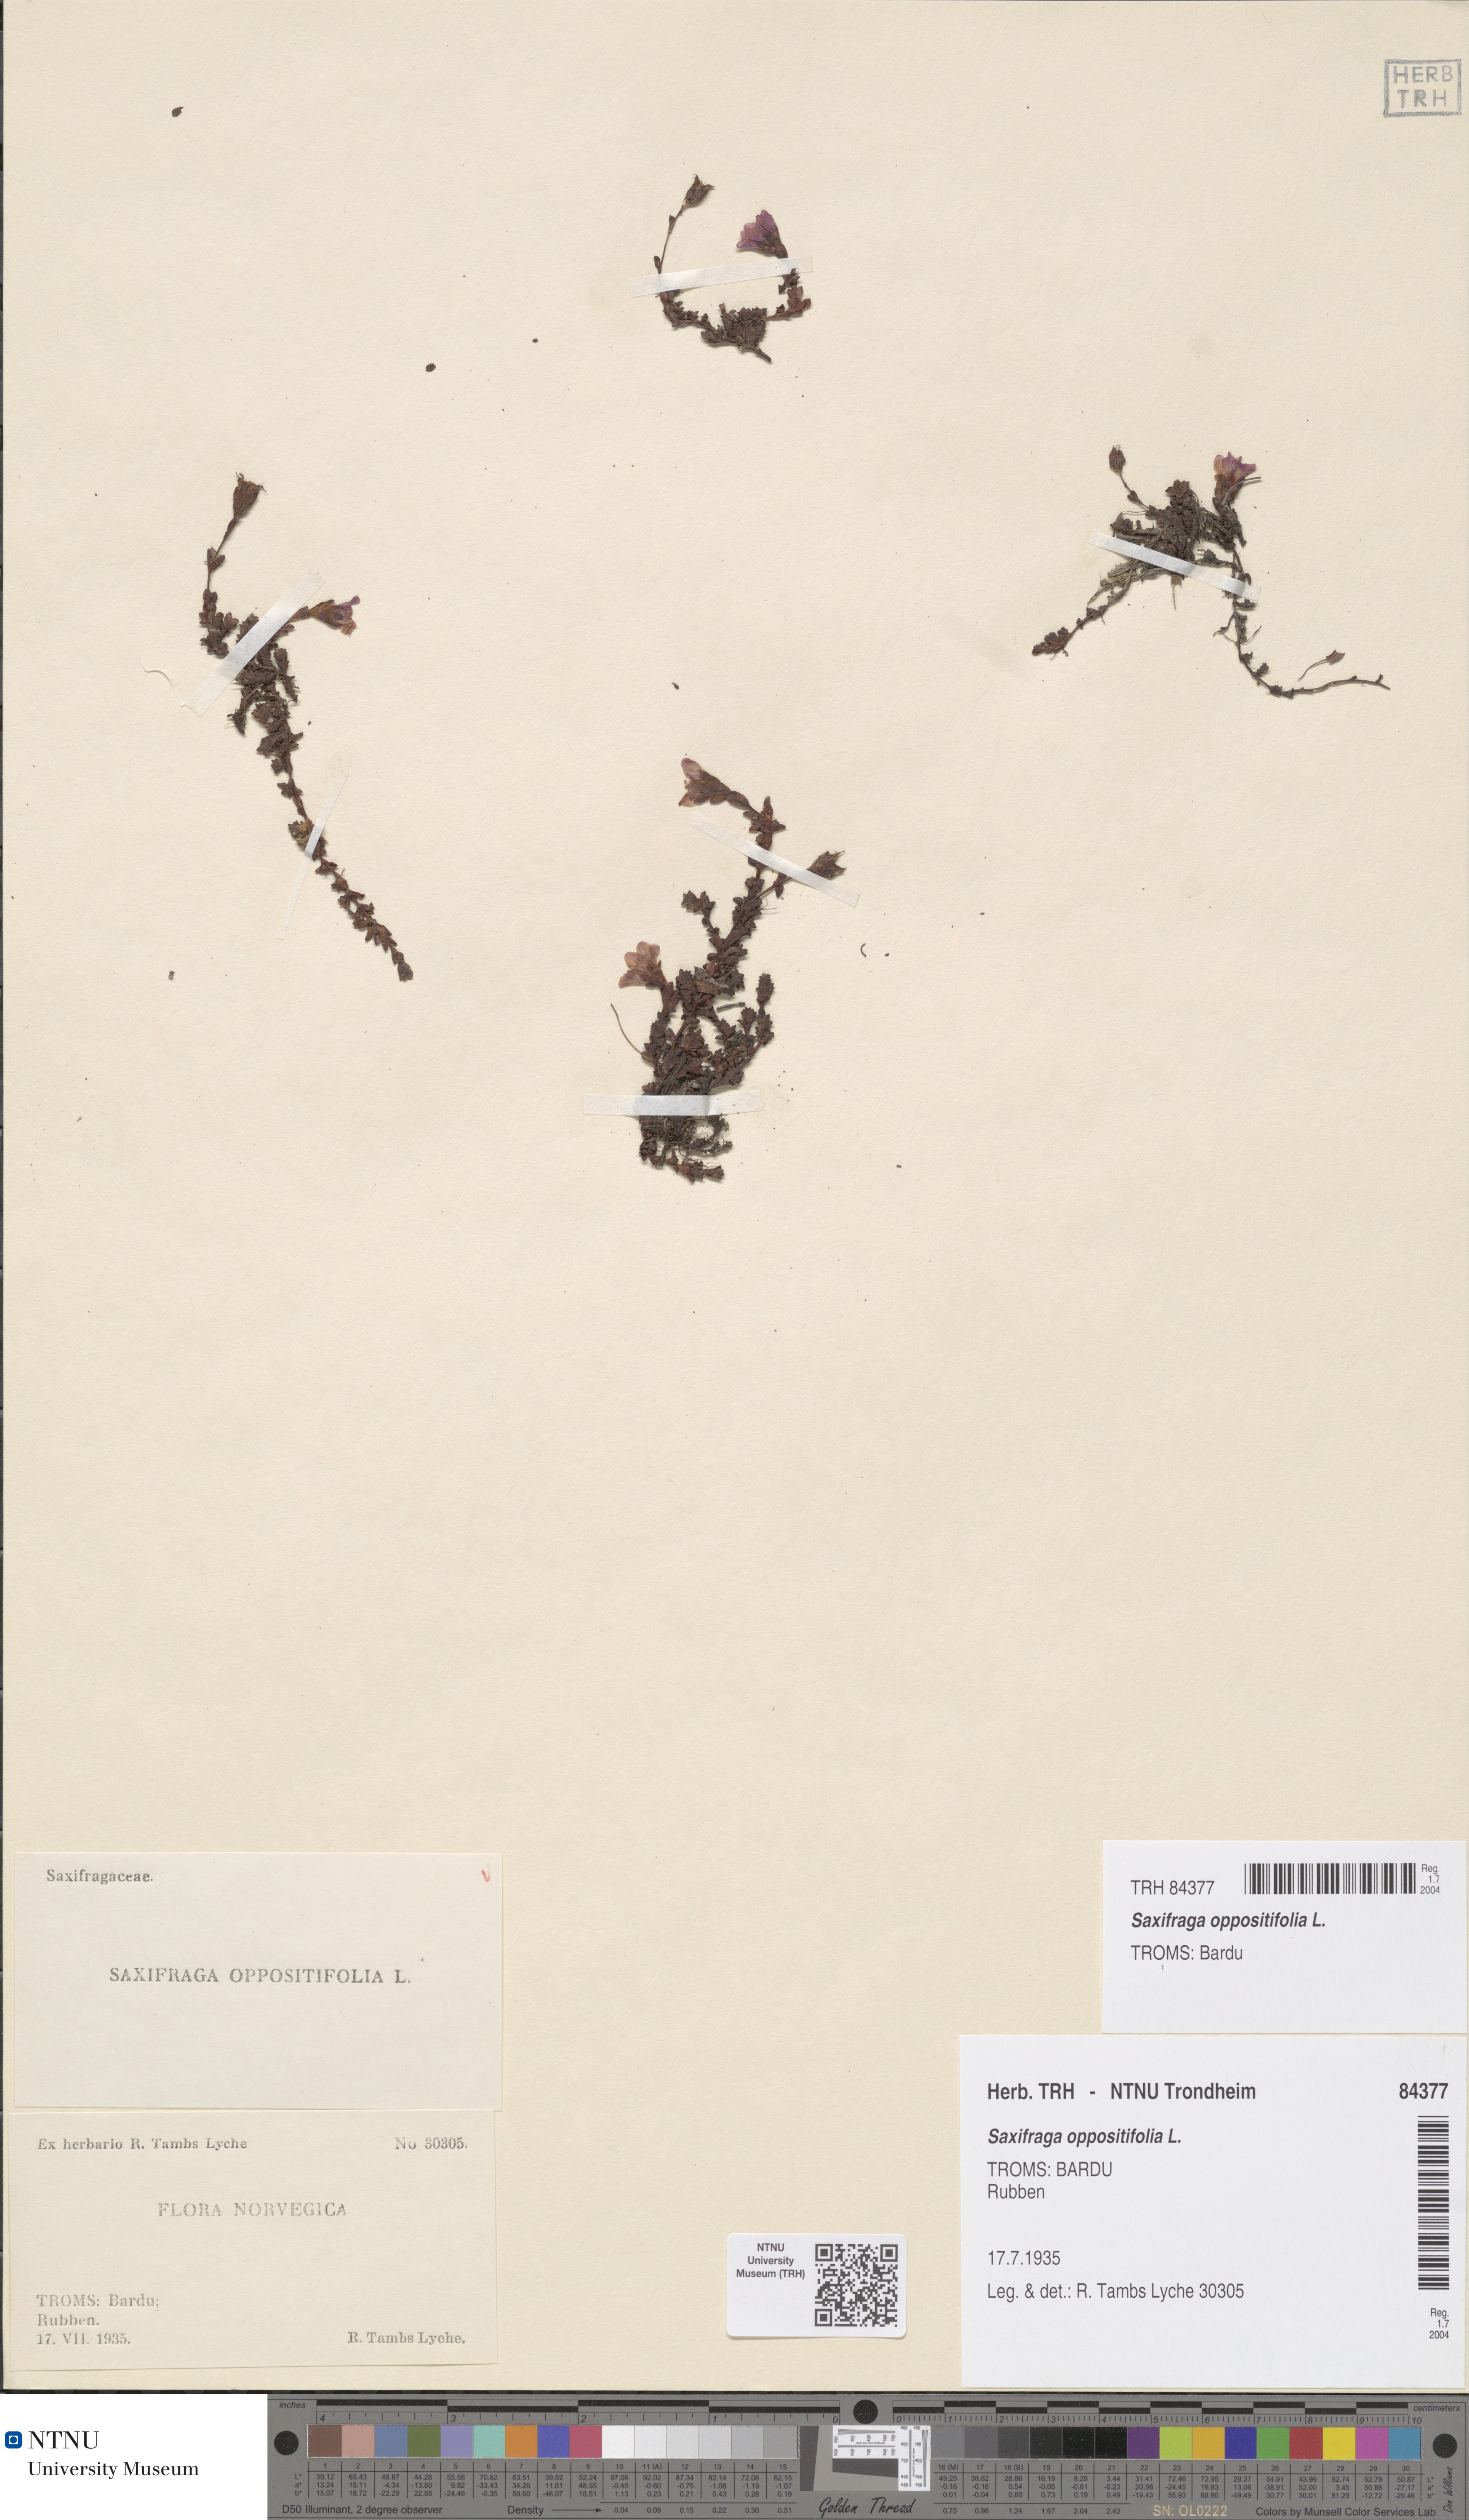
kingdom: Plantae
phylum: Tracheophyta
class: Magnoliopsida
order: Saxifragales
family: Saxifragaceae
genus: Saxifraga
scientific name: Saxifraga oppositifolia
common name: Purple saxifrage
